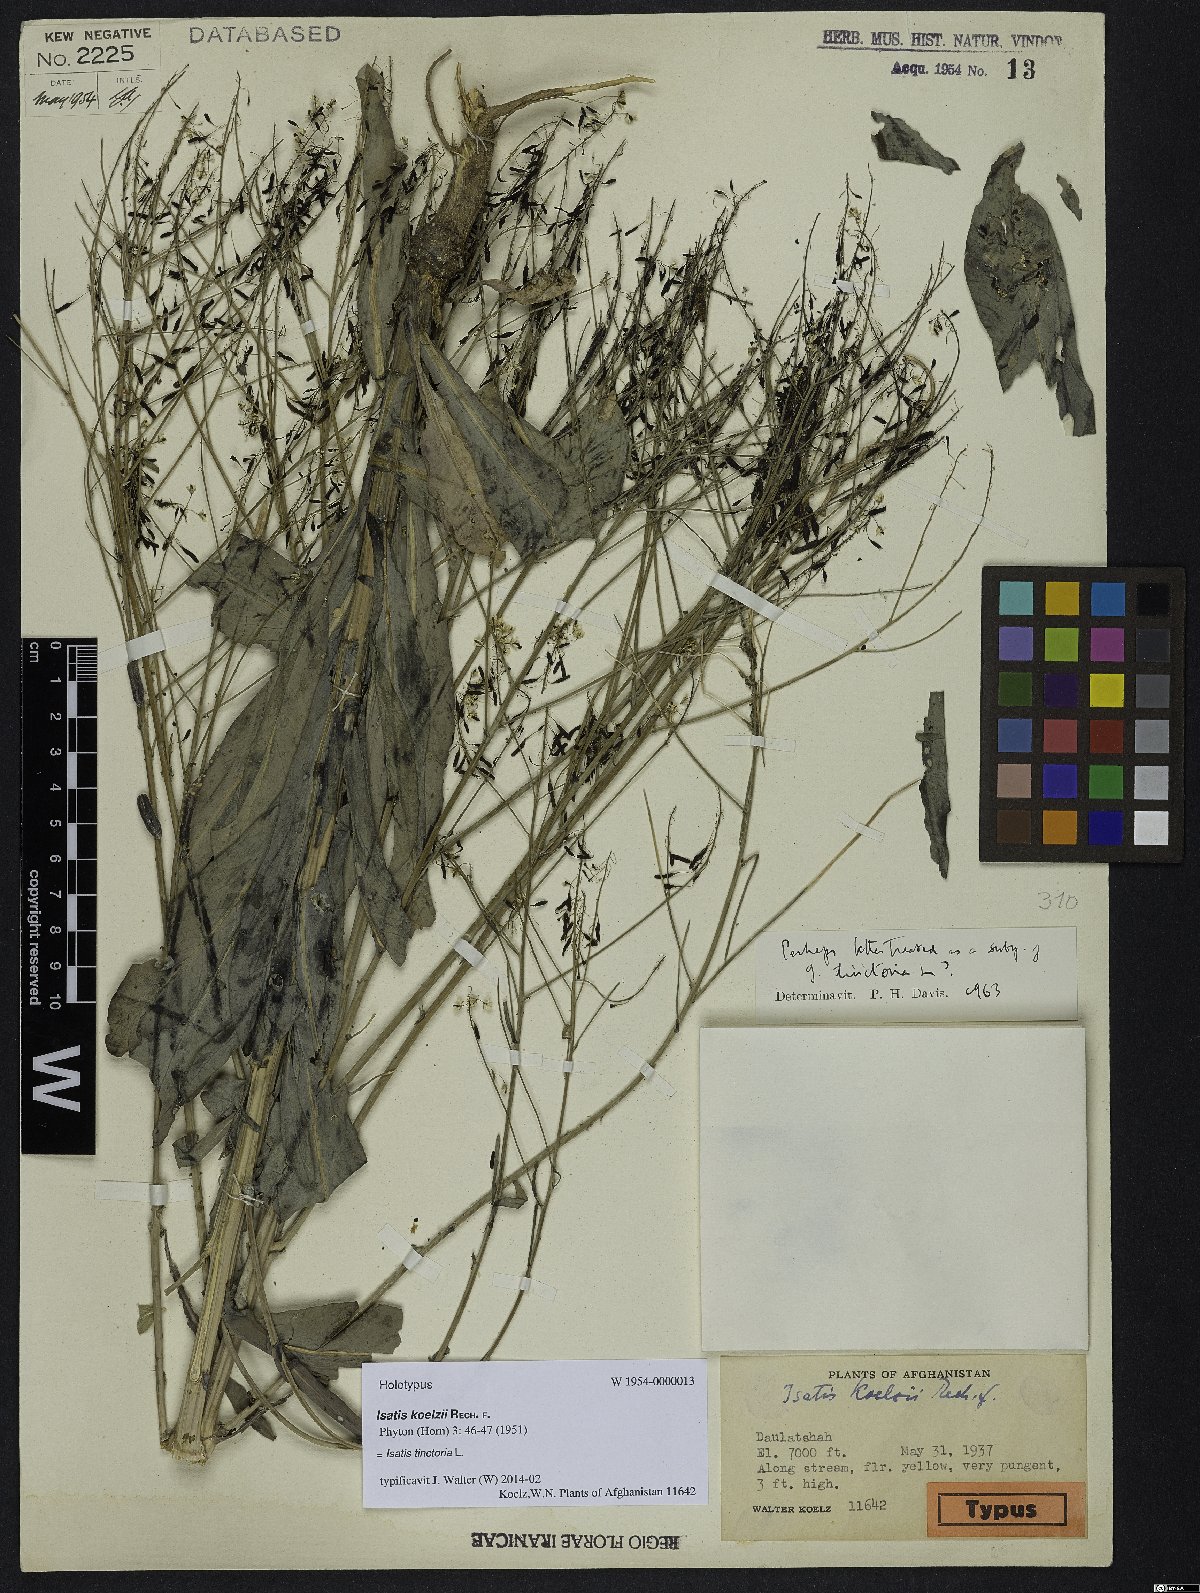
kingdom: Plantae
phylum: Tracheophyta
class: Magnoliopsida
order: Brassicales
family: Brassicaceae
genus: Isatis
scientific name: Isatis tinctoria
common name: Woad
